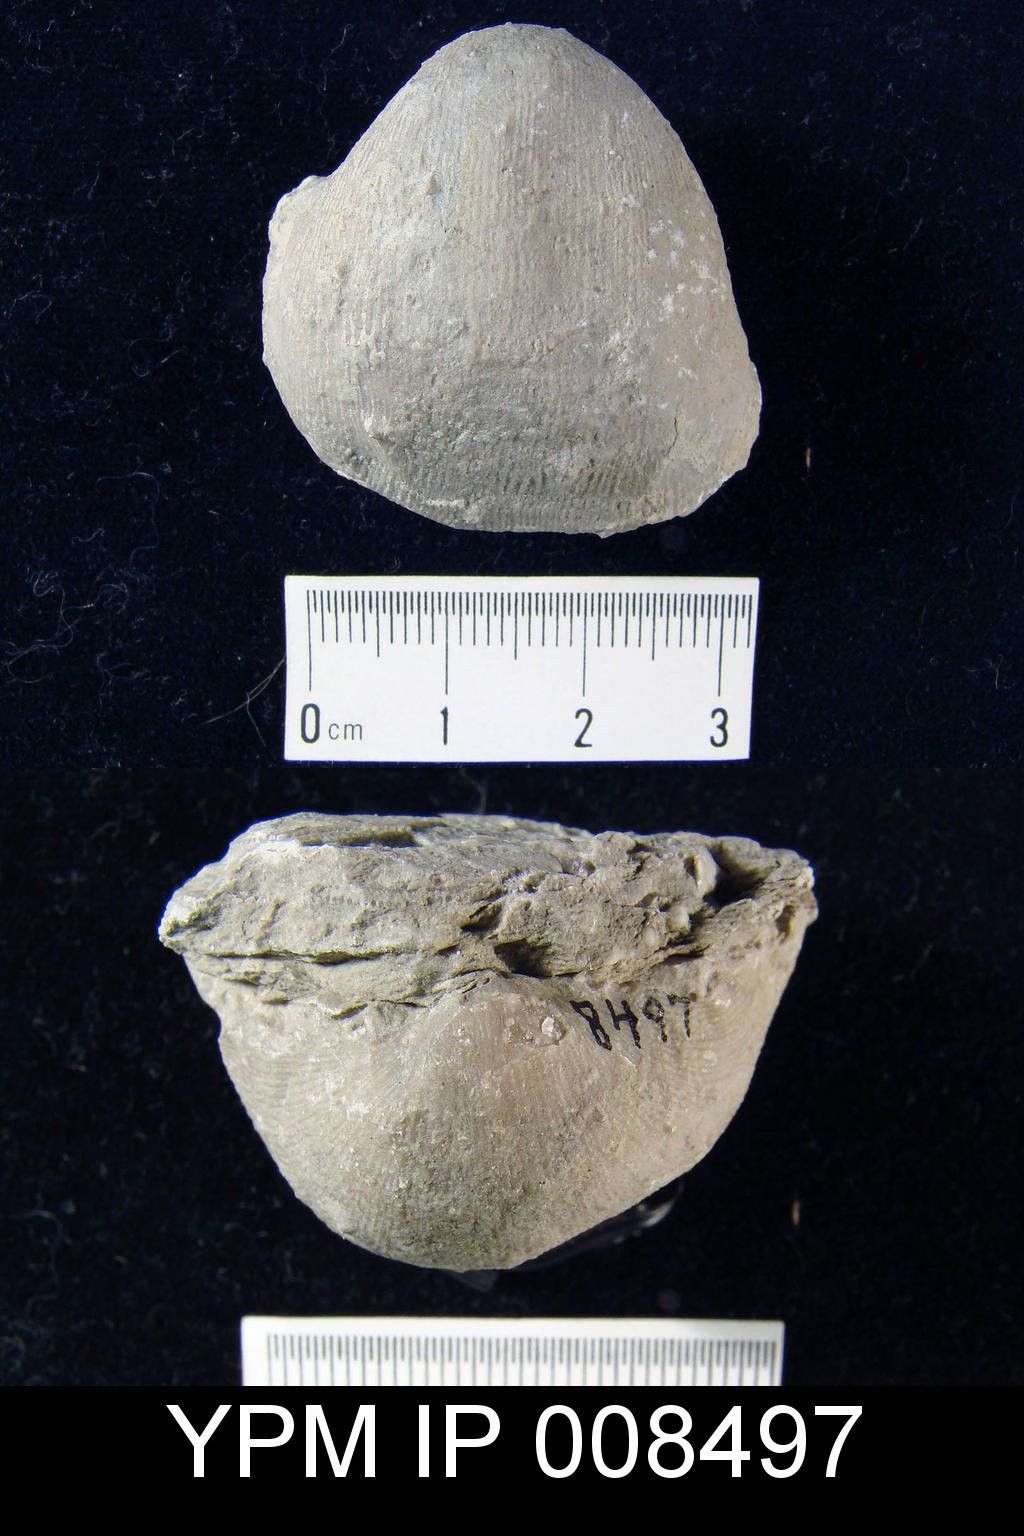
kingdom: Animalia
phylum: Brachiopoda
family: Linoproductidae
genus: Linoproductus
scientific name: Linoproductus
